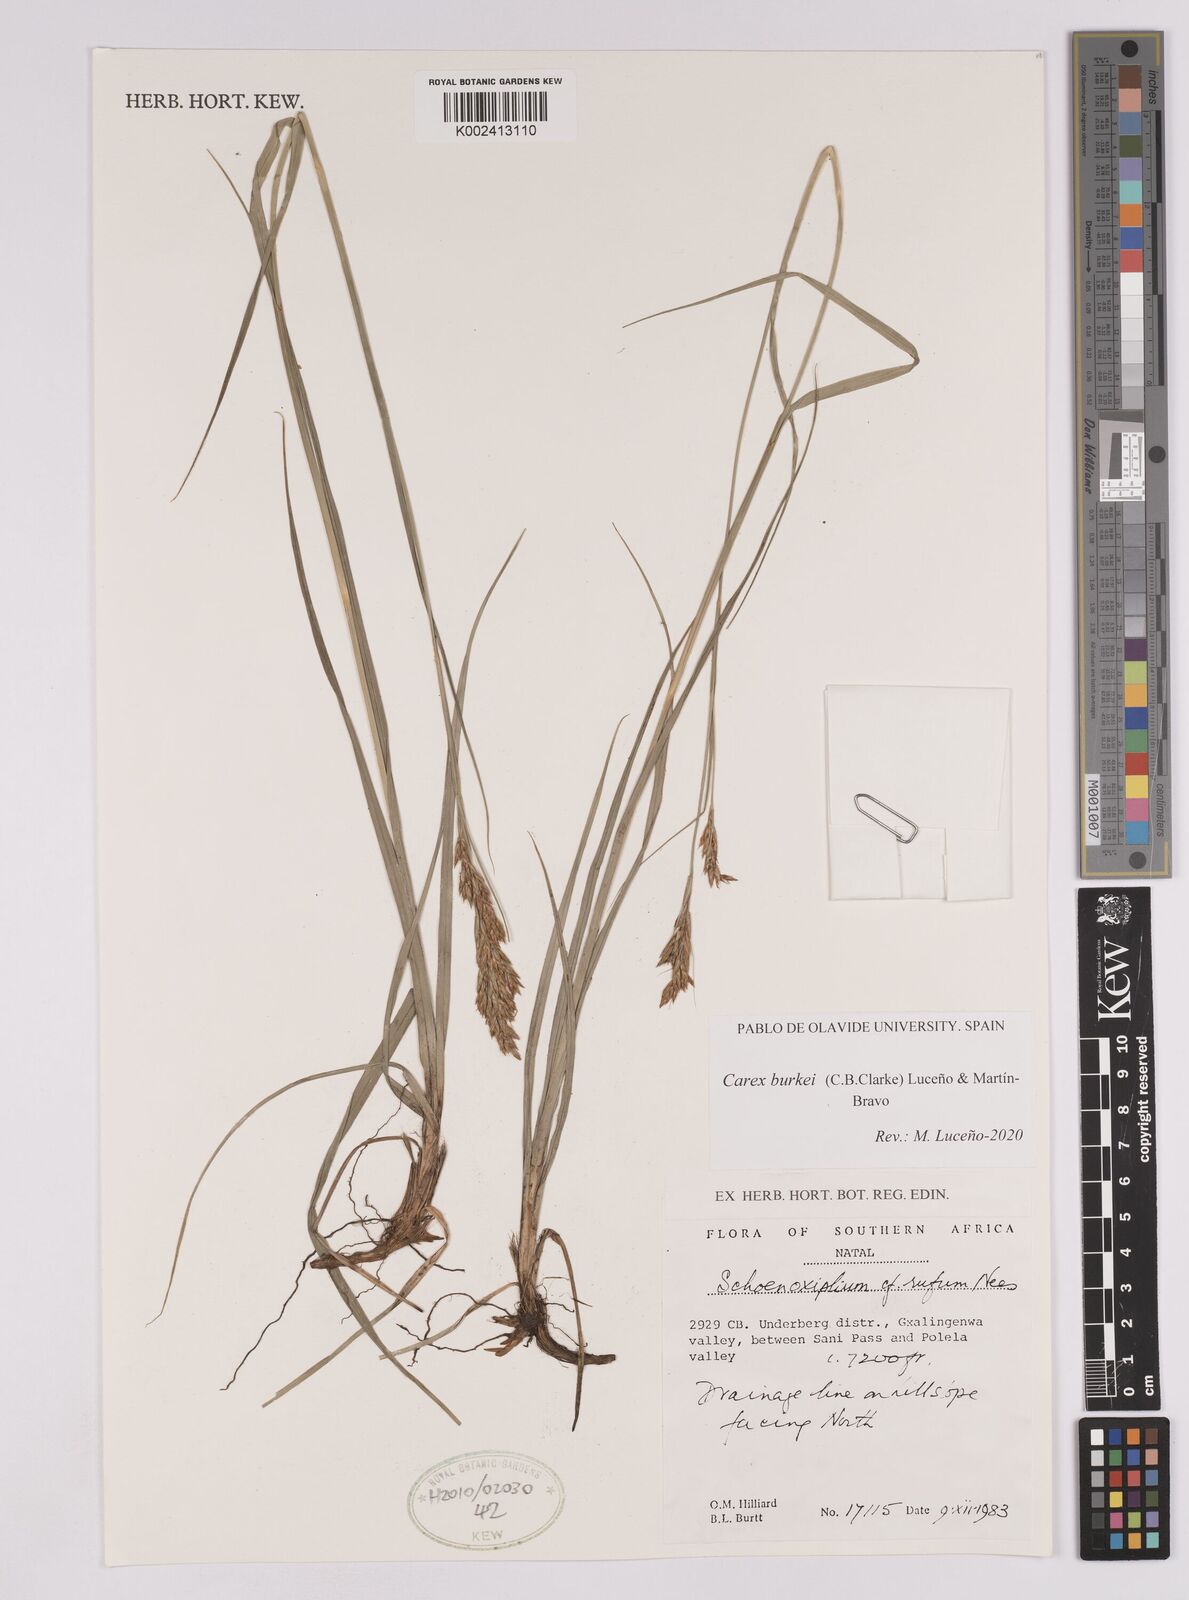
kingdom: Plantae
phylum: Tracheophyta
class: Liliopsida
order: Poales
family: Cyperaceae
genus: Carex
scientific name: Carex burkei
